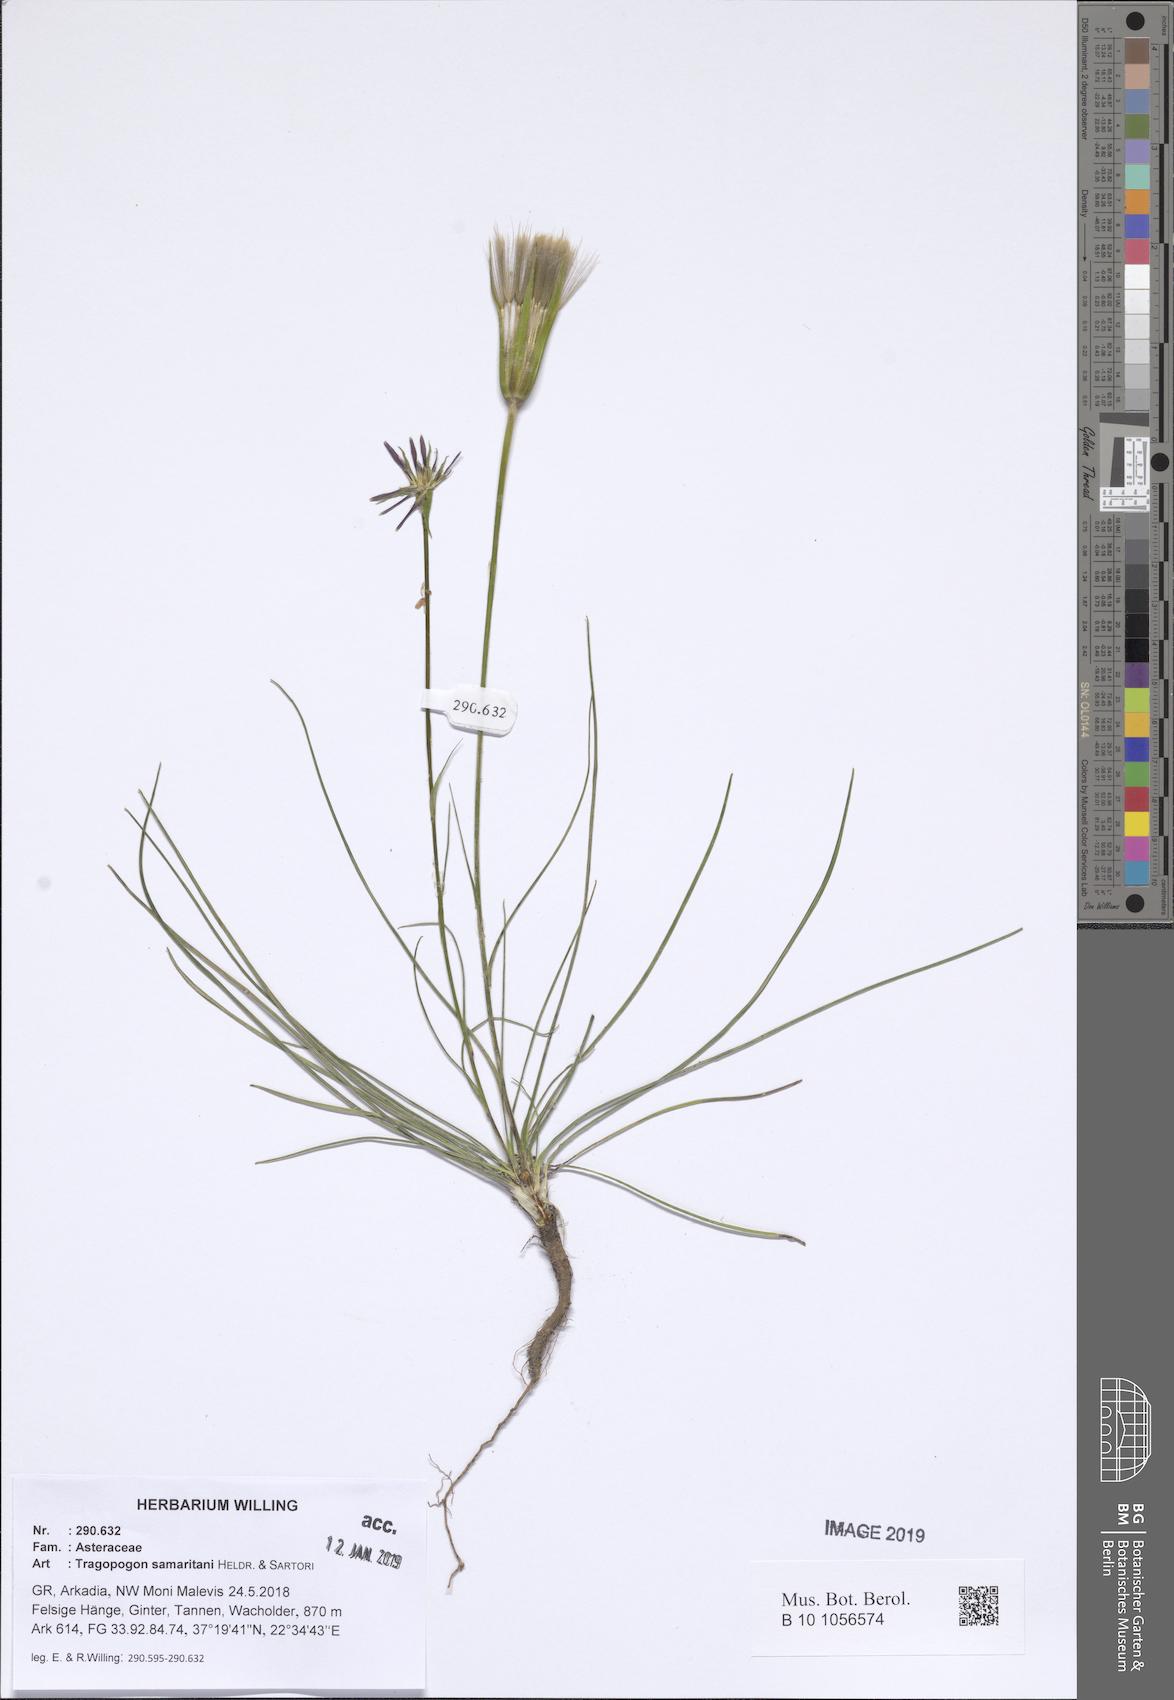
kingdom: Plantae
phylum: Tracheophyta
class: Magnoliopsida
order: Asterales
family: Asteraceae
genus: Tragopogon
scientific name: Tragopogon samaritani
